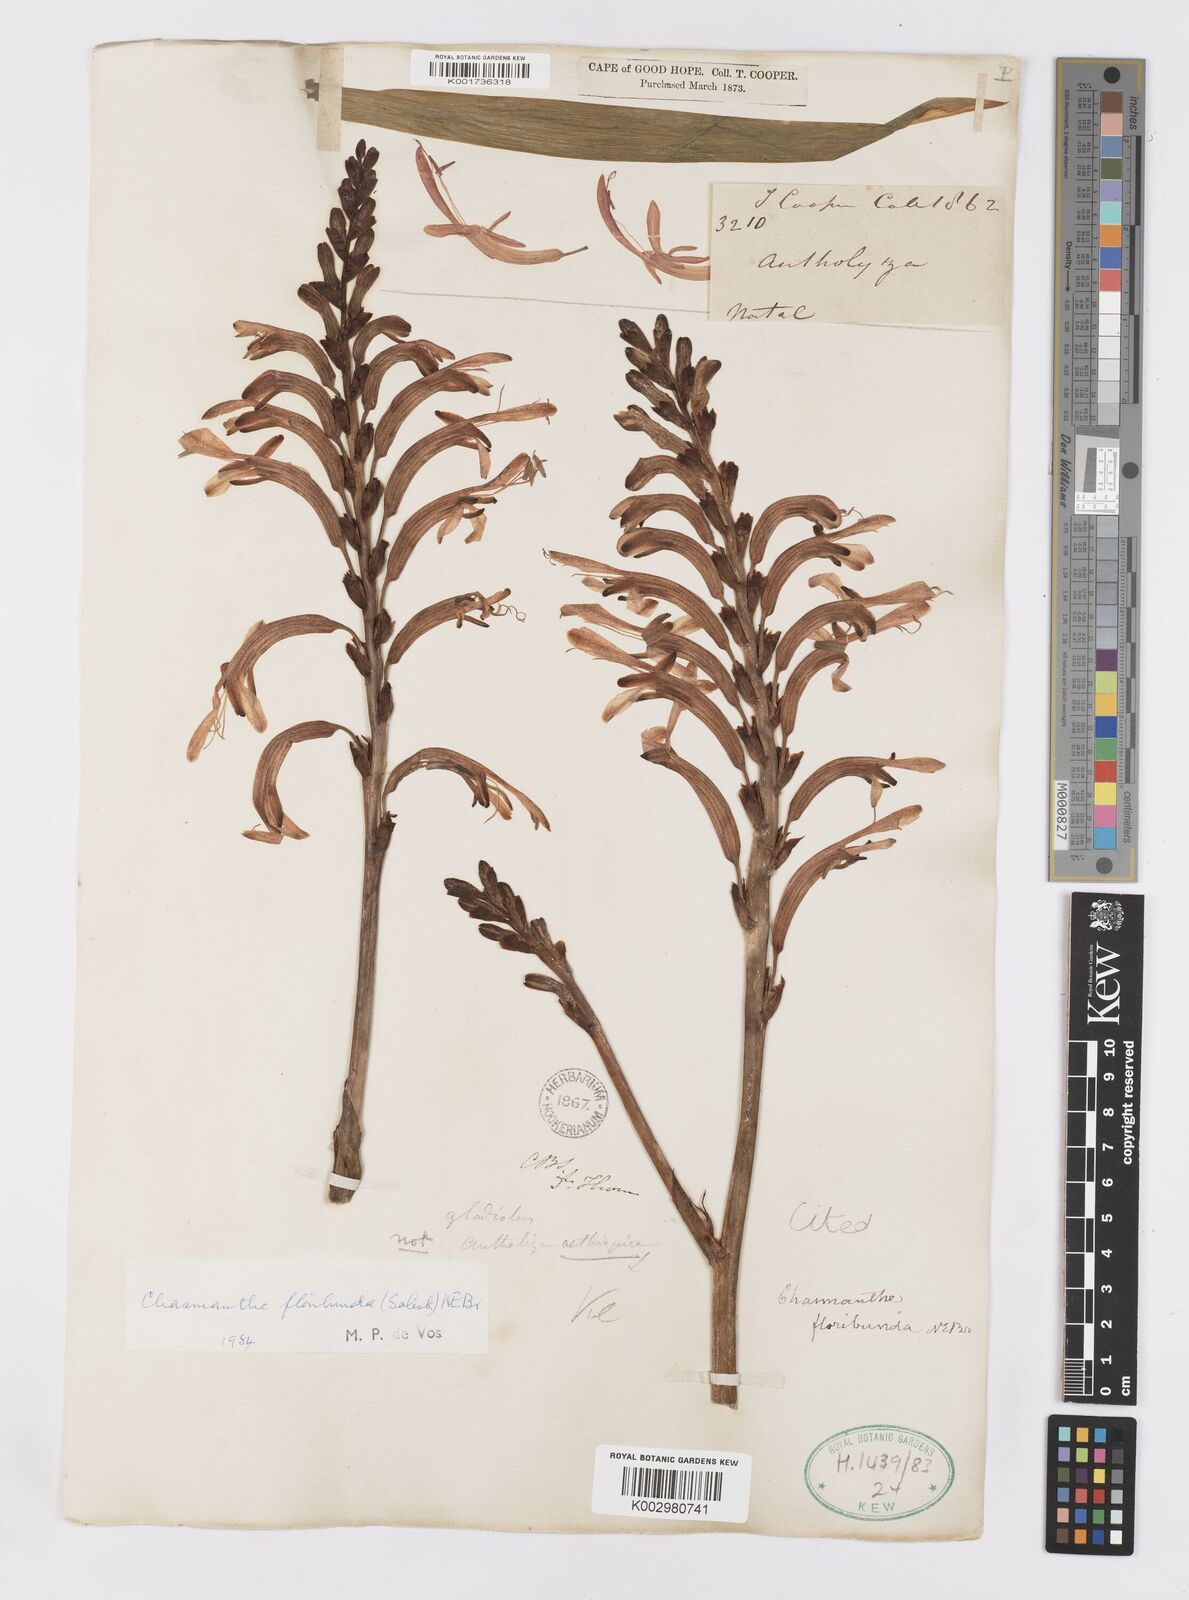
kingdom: Plantae
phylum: Tracheophyta
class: Liliopsida
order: Asparagales
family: Iridaceae
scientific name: Iridaceae
